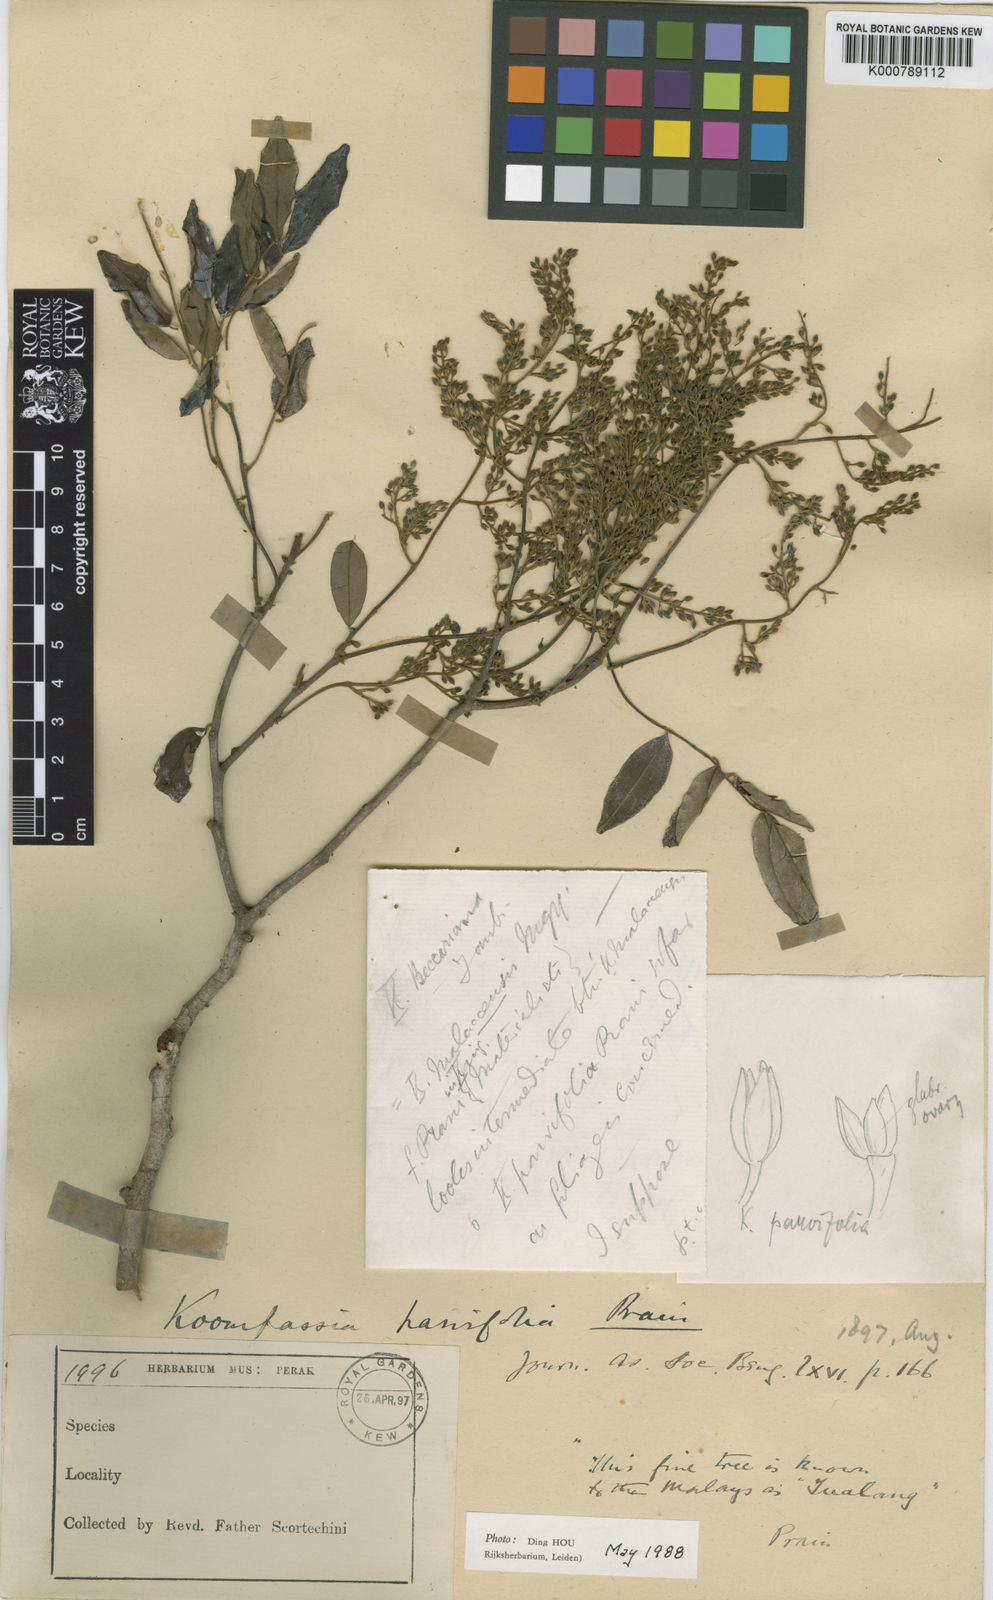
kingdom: Plantae
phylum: Tracheophyta
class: Magnoliopsida
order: Fabales
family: Fabaceae
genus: Koompassia
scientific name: Koompassia excelsa
